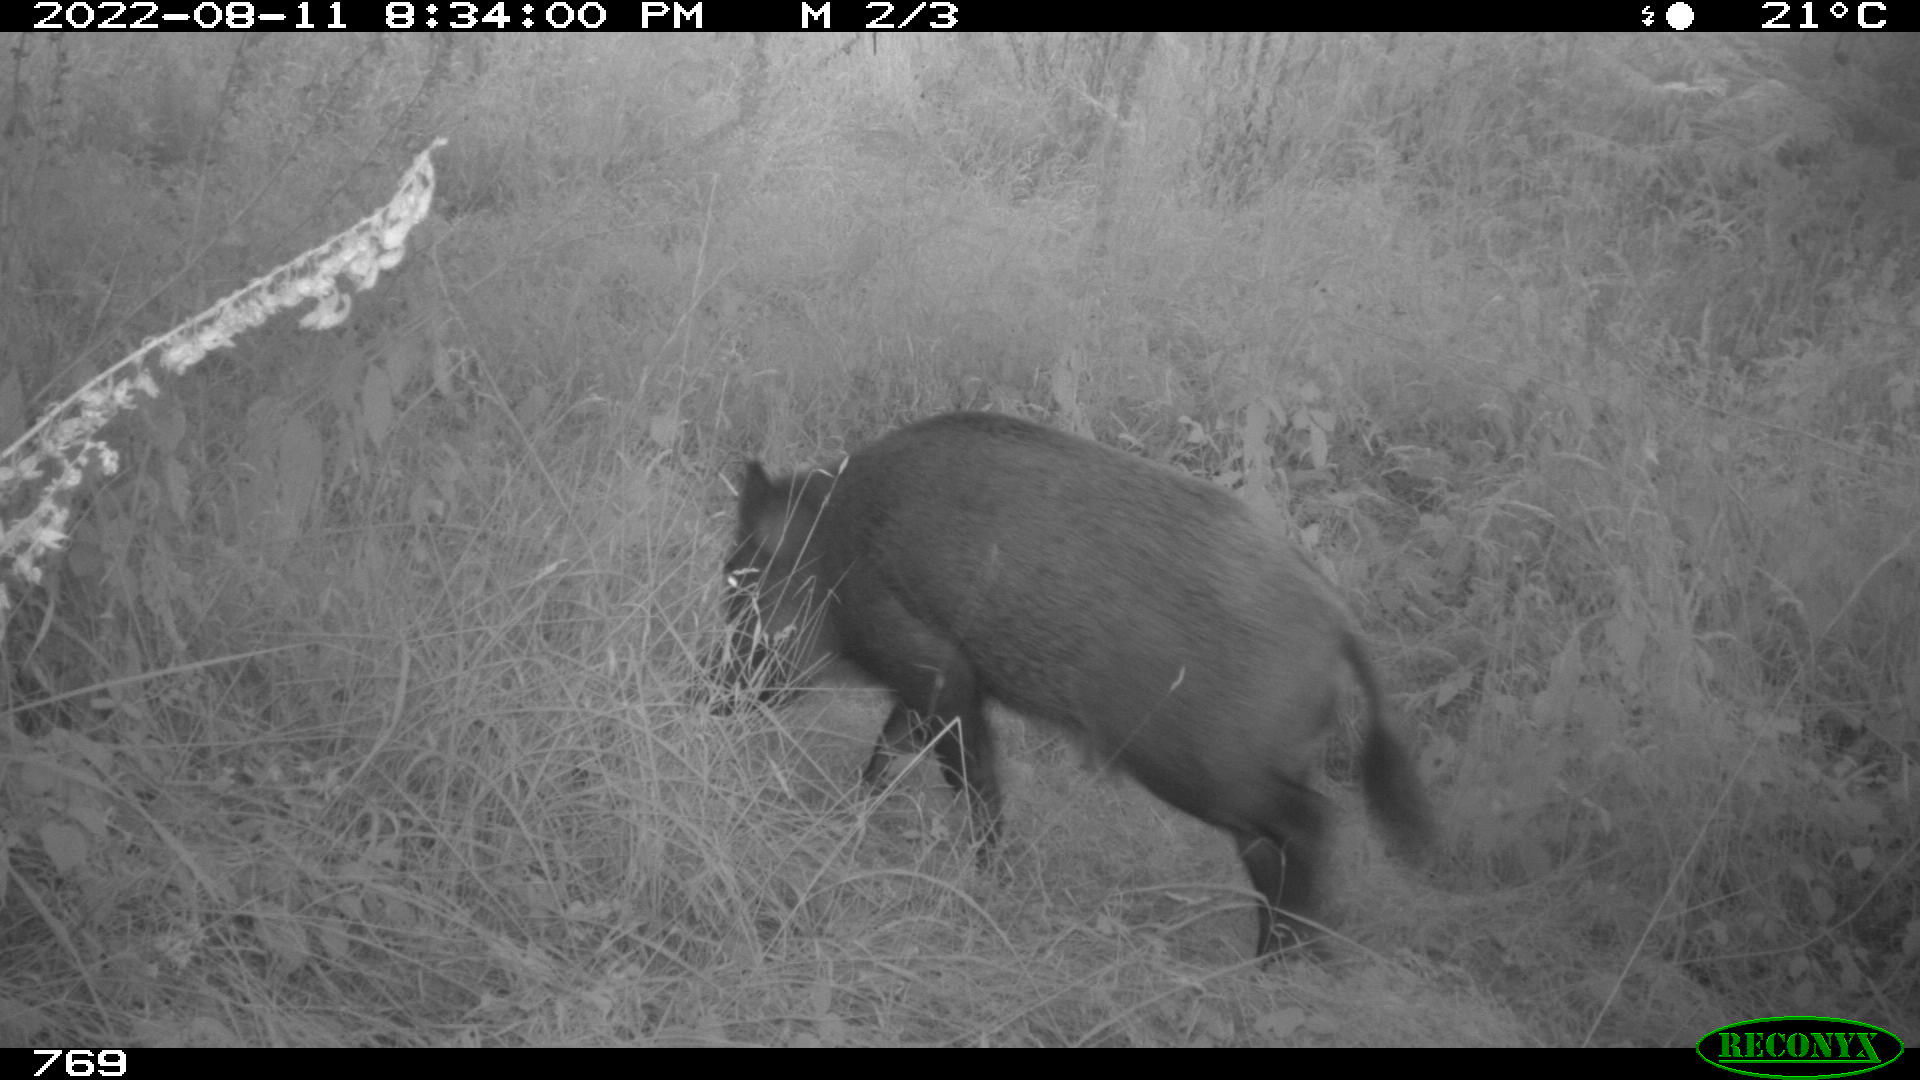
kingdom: Animalia
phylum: Chordata
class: Mammalia
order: Artiodactyla
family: Suidae
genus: Sus
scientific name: Sus scrofa
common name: Wild boar
